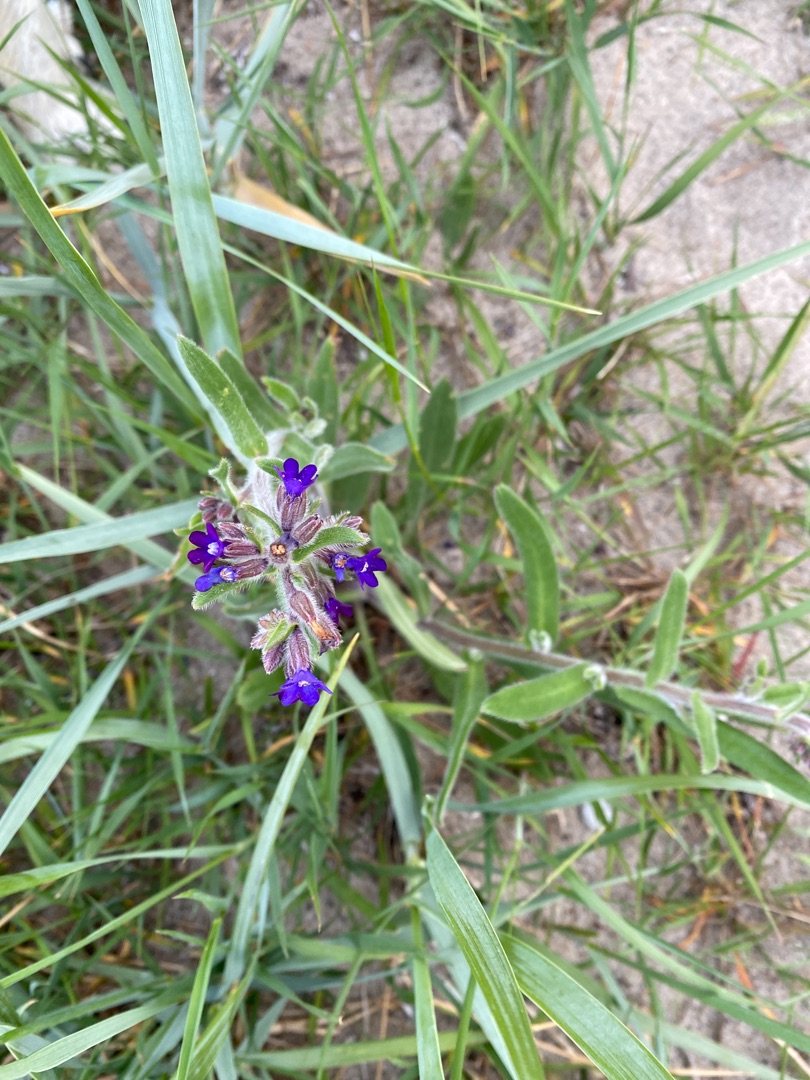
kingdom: Plantae
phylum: Tracheophyta
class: Magnoliopsida
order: Boraginales
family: Boraginaceae
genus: Anchusa
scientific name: Anchusa officinalis
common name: Læge-oksetunge
